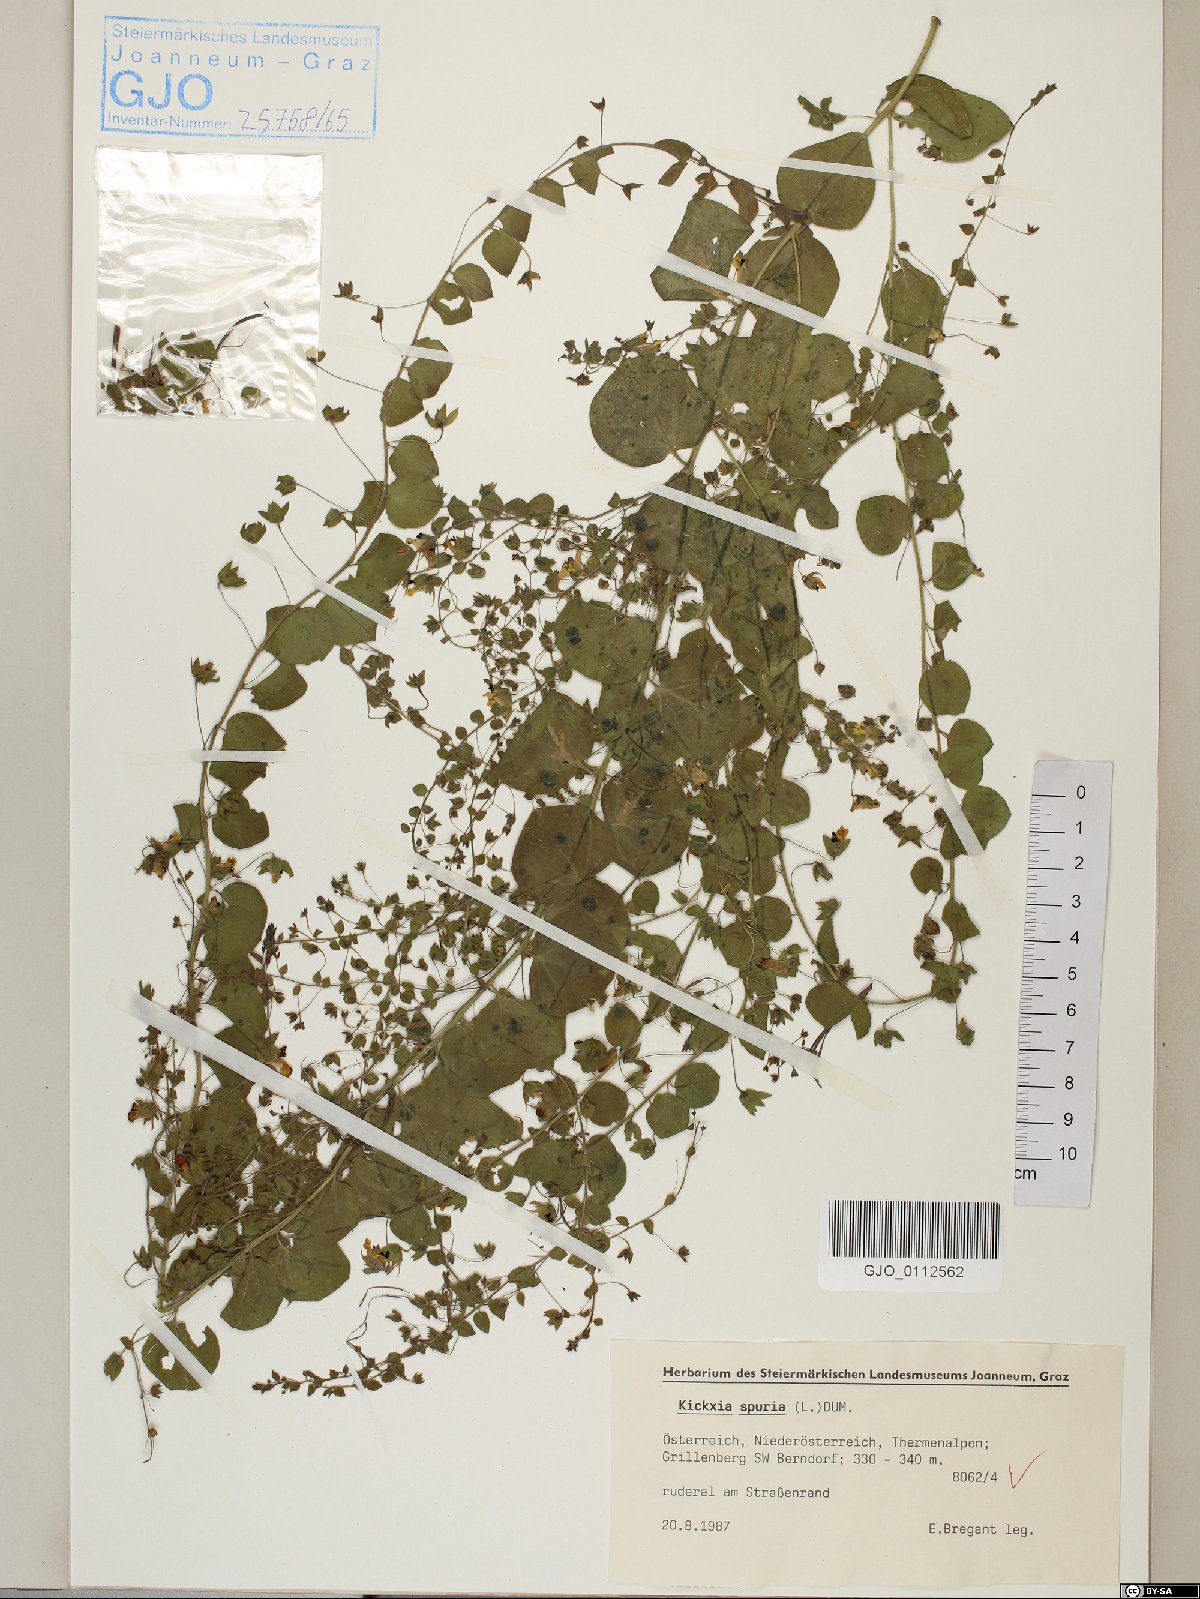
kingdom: Plantae
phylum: Tracheophyta
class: Magnoliopsida
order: Lamiales
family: Plantaginaceae
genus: Kickxia
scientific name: Kickxia spuria
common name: Round-leaved fluellen
